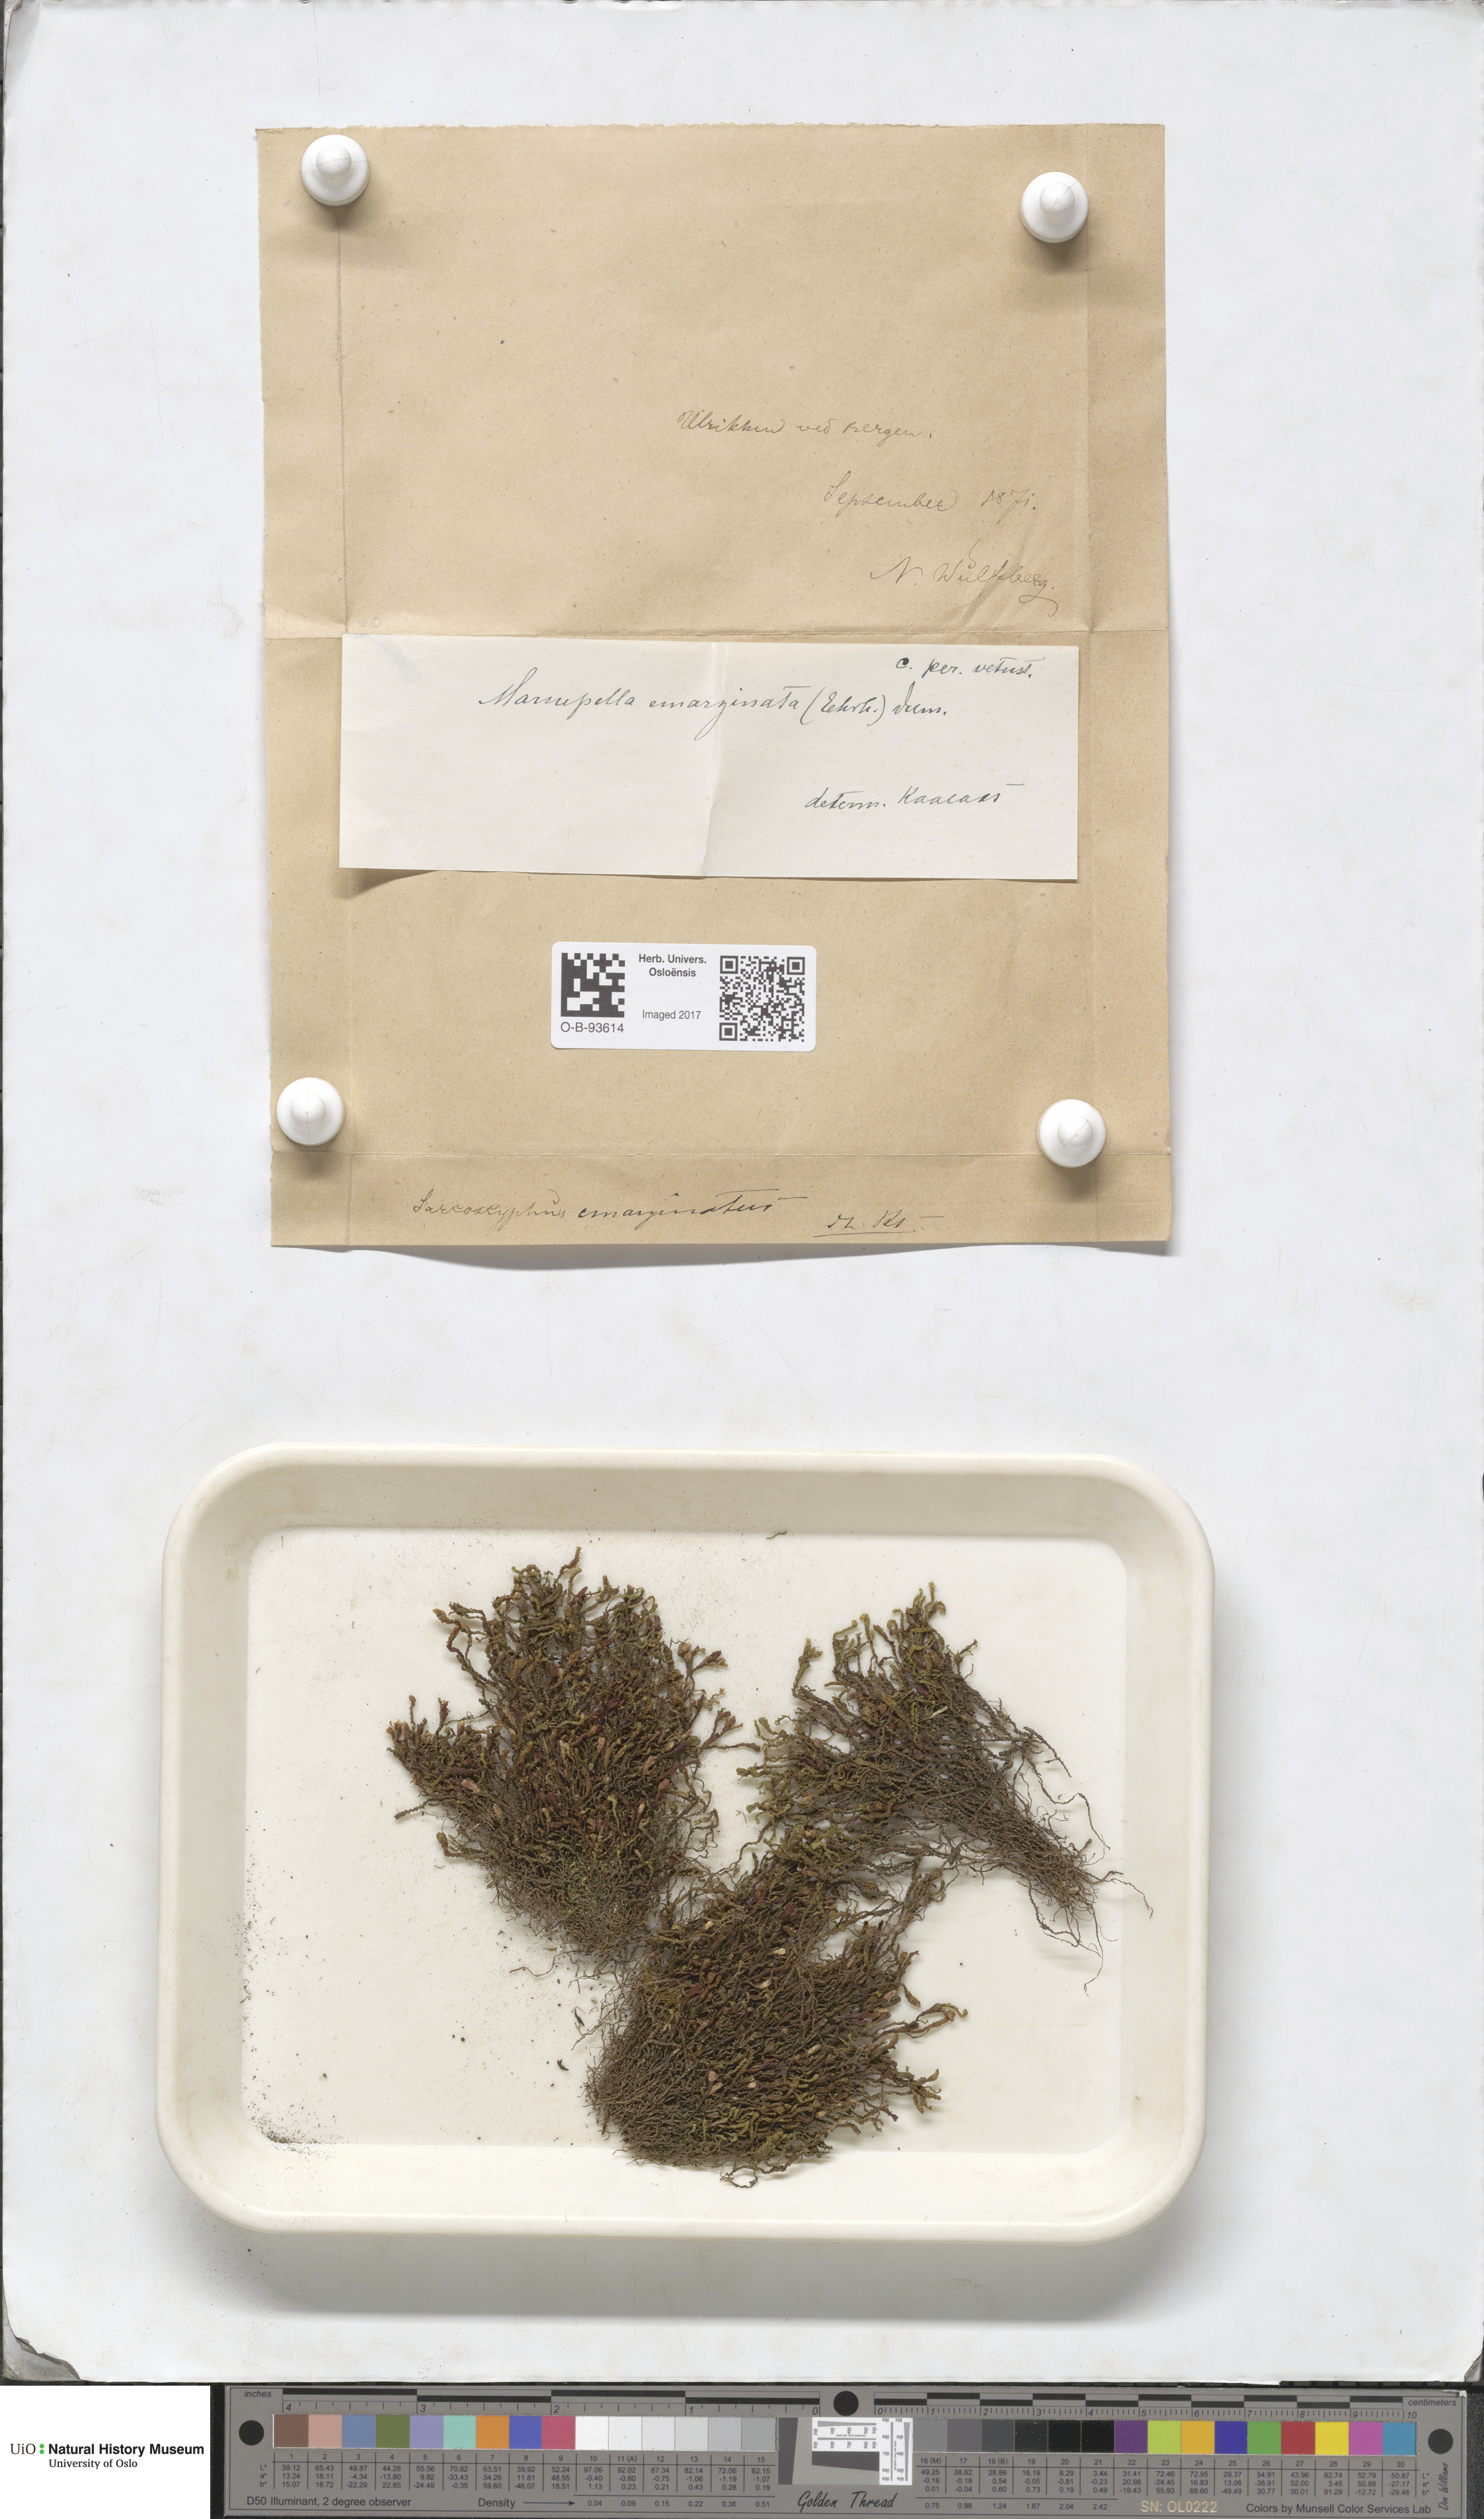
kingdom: Plantae
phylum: Marchantiophyta
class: Jungermanniopsida
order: Jungermanniales
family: Gymnomitriaceae
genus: Marsupella
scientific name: Marsupella emarginata
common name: Notched rustwort
